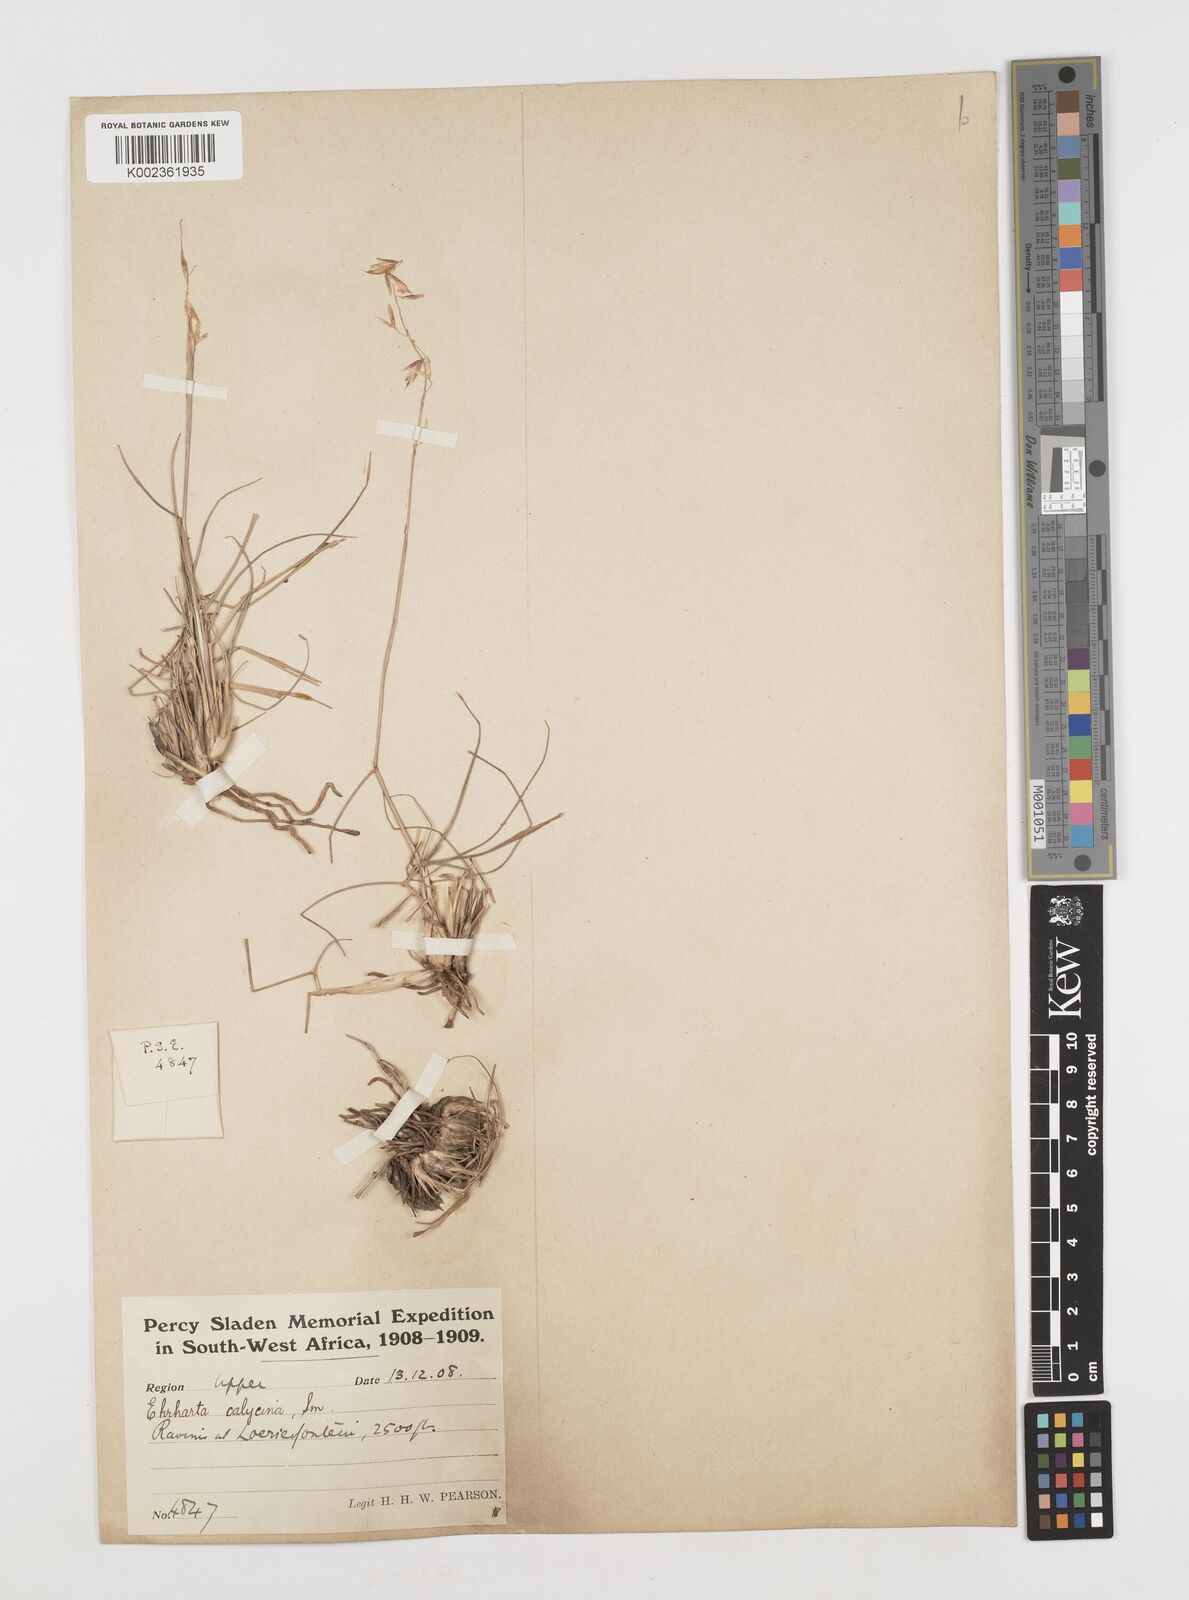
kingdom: Plantae
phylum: Tracheophyta
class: Liliopsida
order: Poales
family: Poaceae
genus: Ehrharta
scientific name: Ehrharta calycina
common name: Perennial veldtgrass
